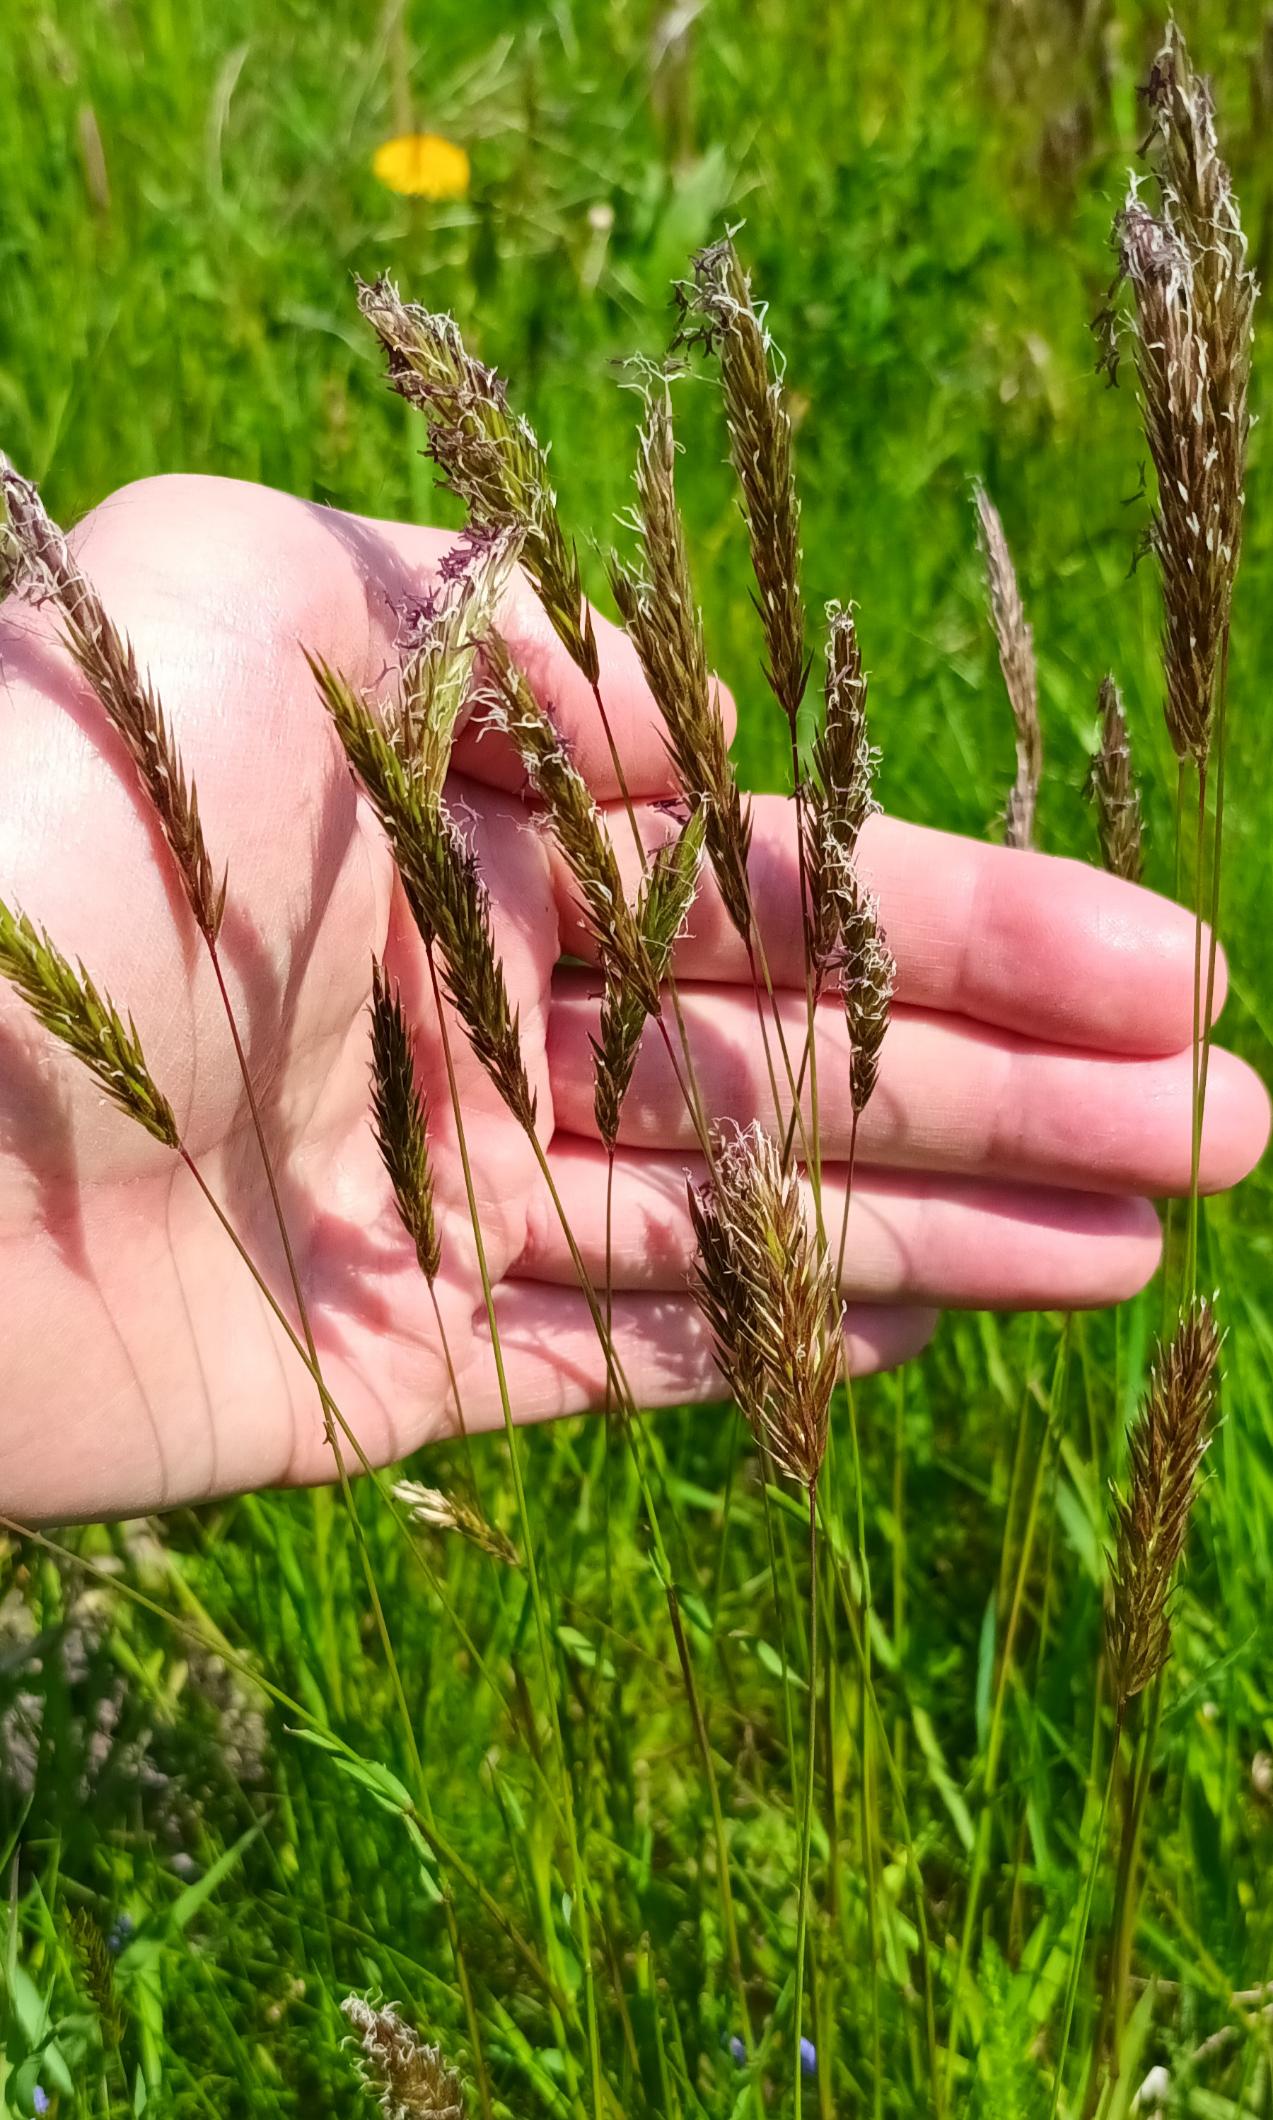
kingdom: Plantae
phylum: Tracheophyta
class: Liliopsida
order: Poales
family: Poaceae
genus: Anthoxanthum
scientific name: Anthoxanthum odoratum
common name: Vellugtende gulaks
